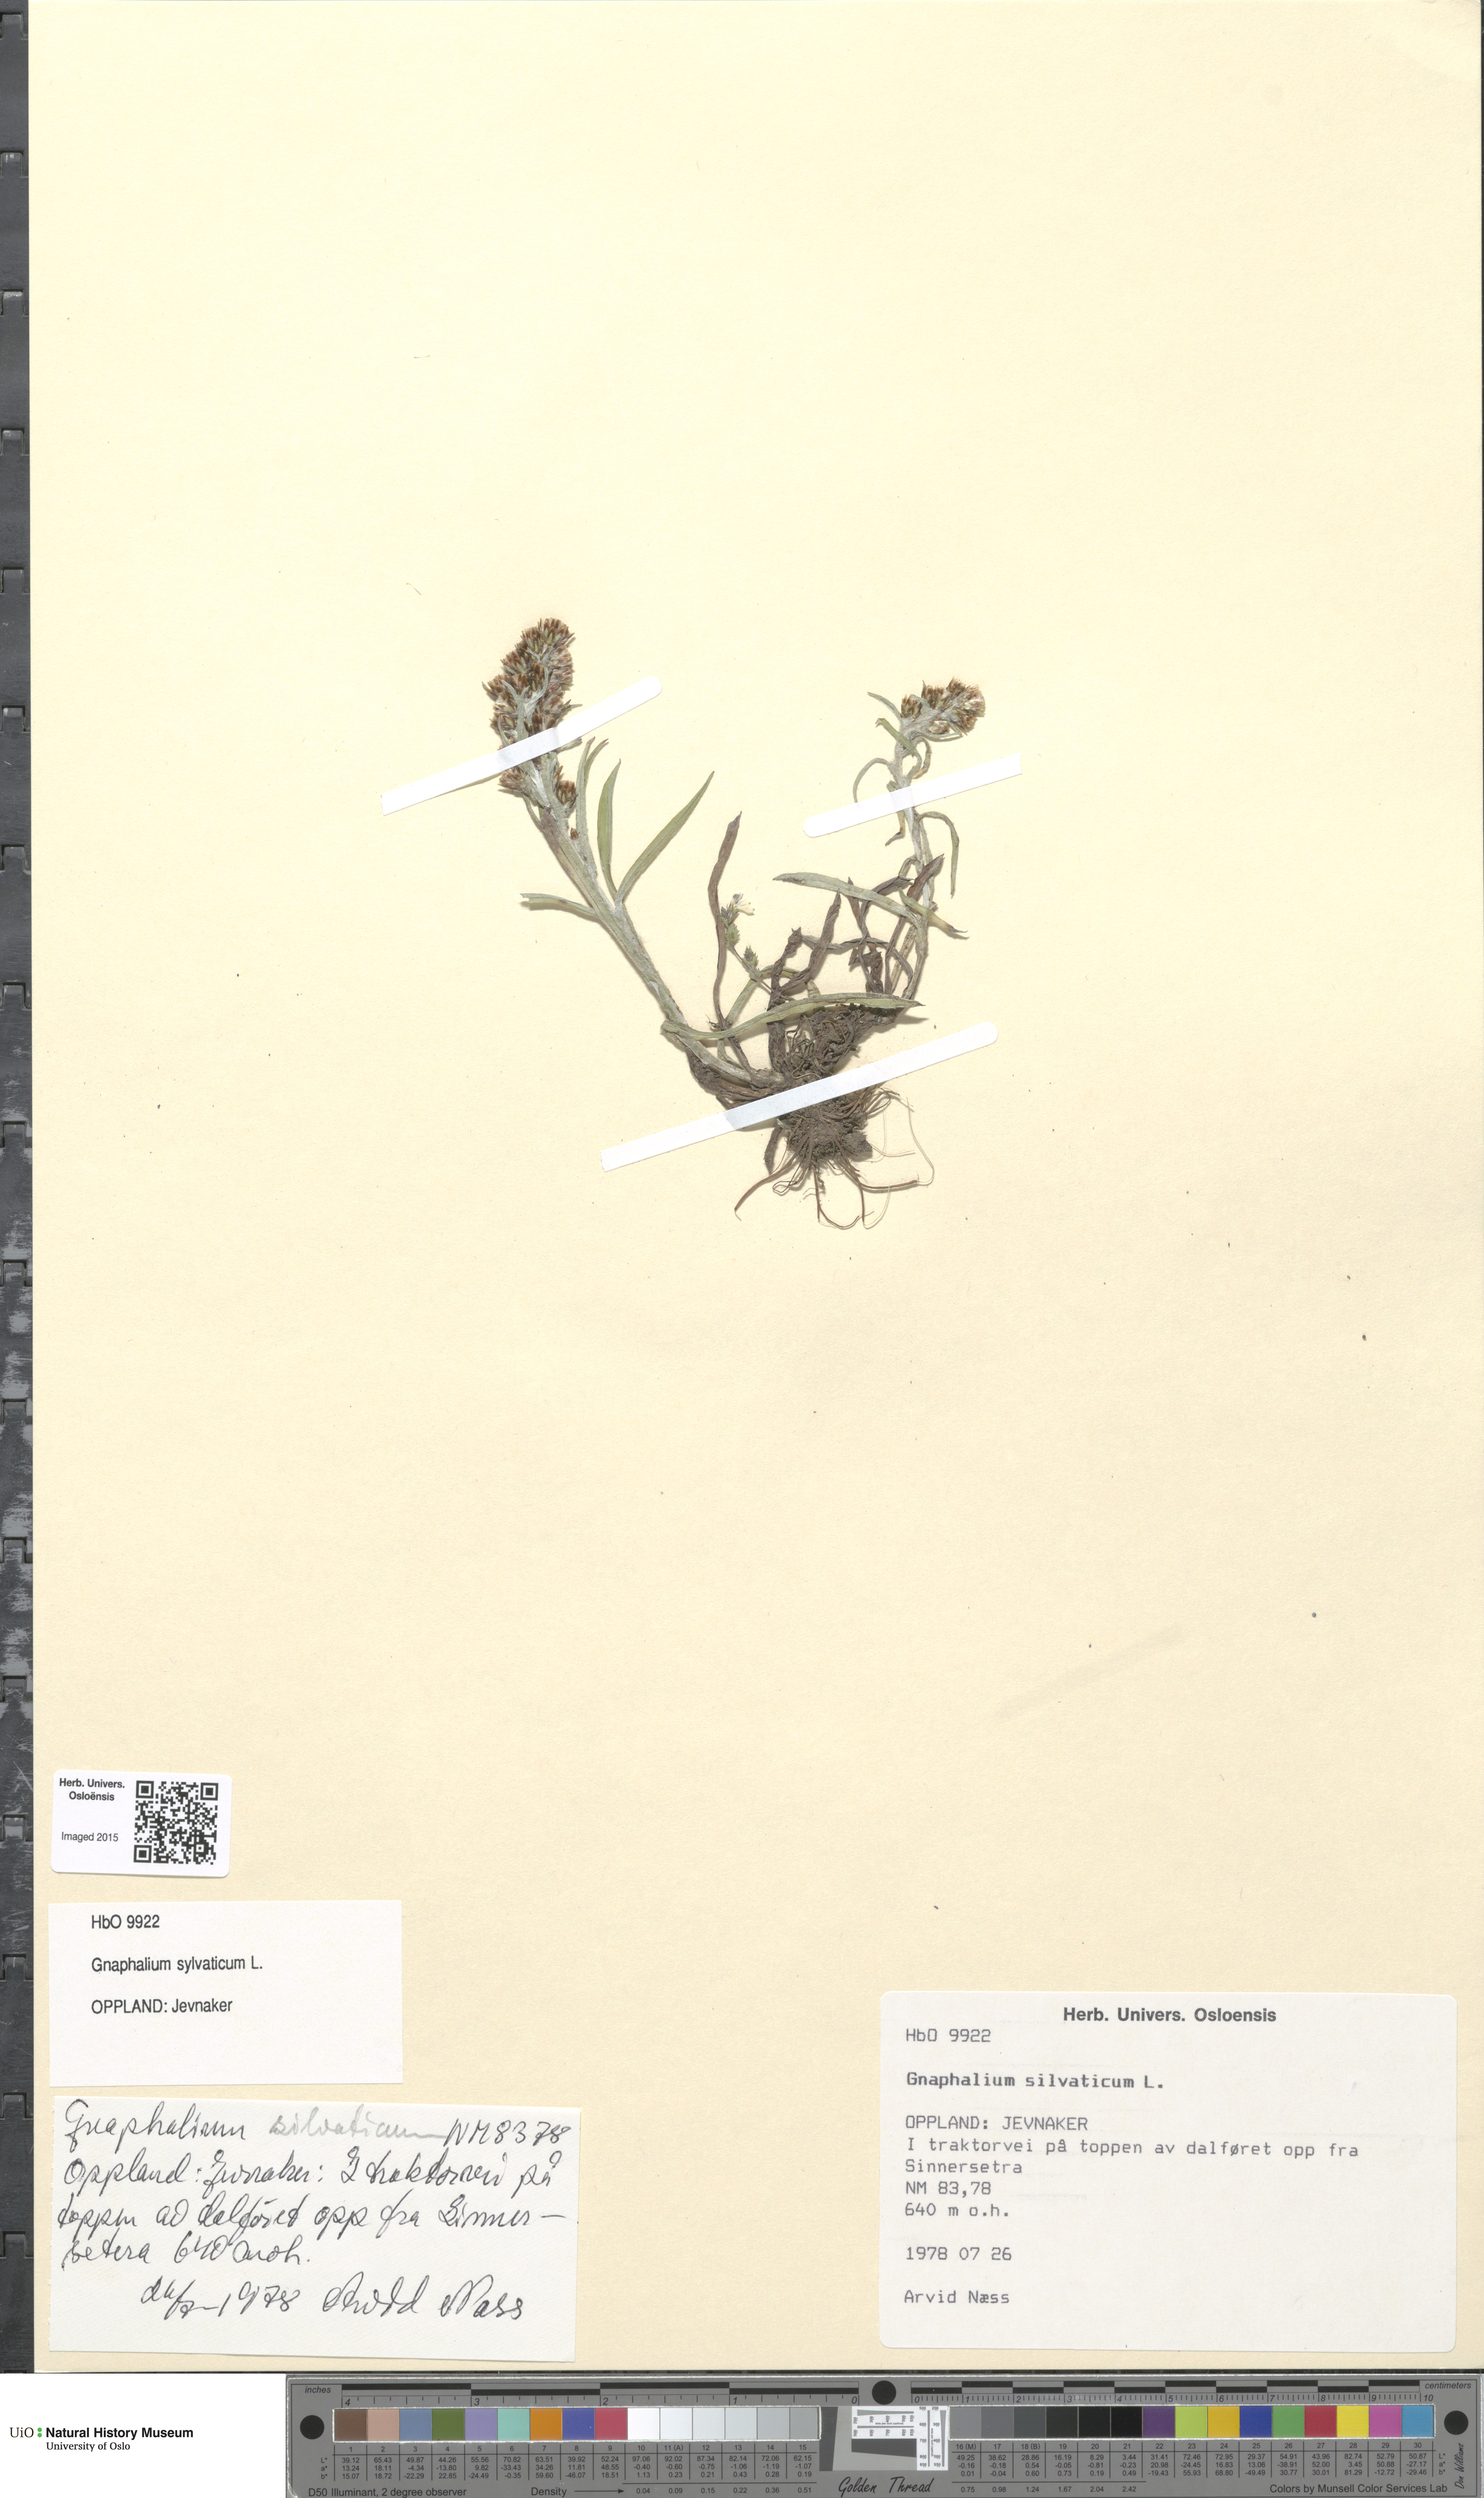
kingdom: Plantae
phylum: Tracheophyta
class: Magnoliopsida
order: Asterales
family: Asteraceae
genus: Omalotheca
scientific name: Omalotheca sylvatica
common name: Heath cudweed
